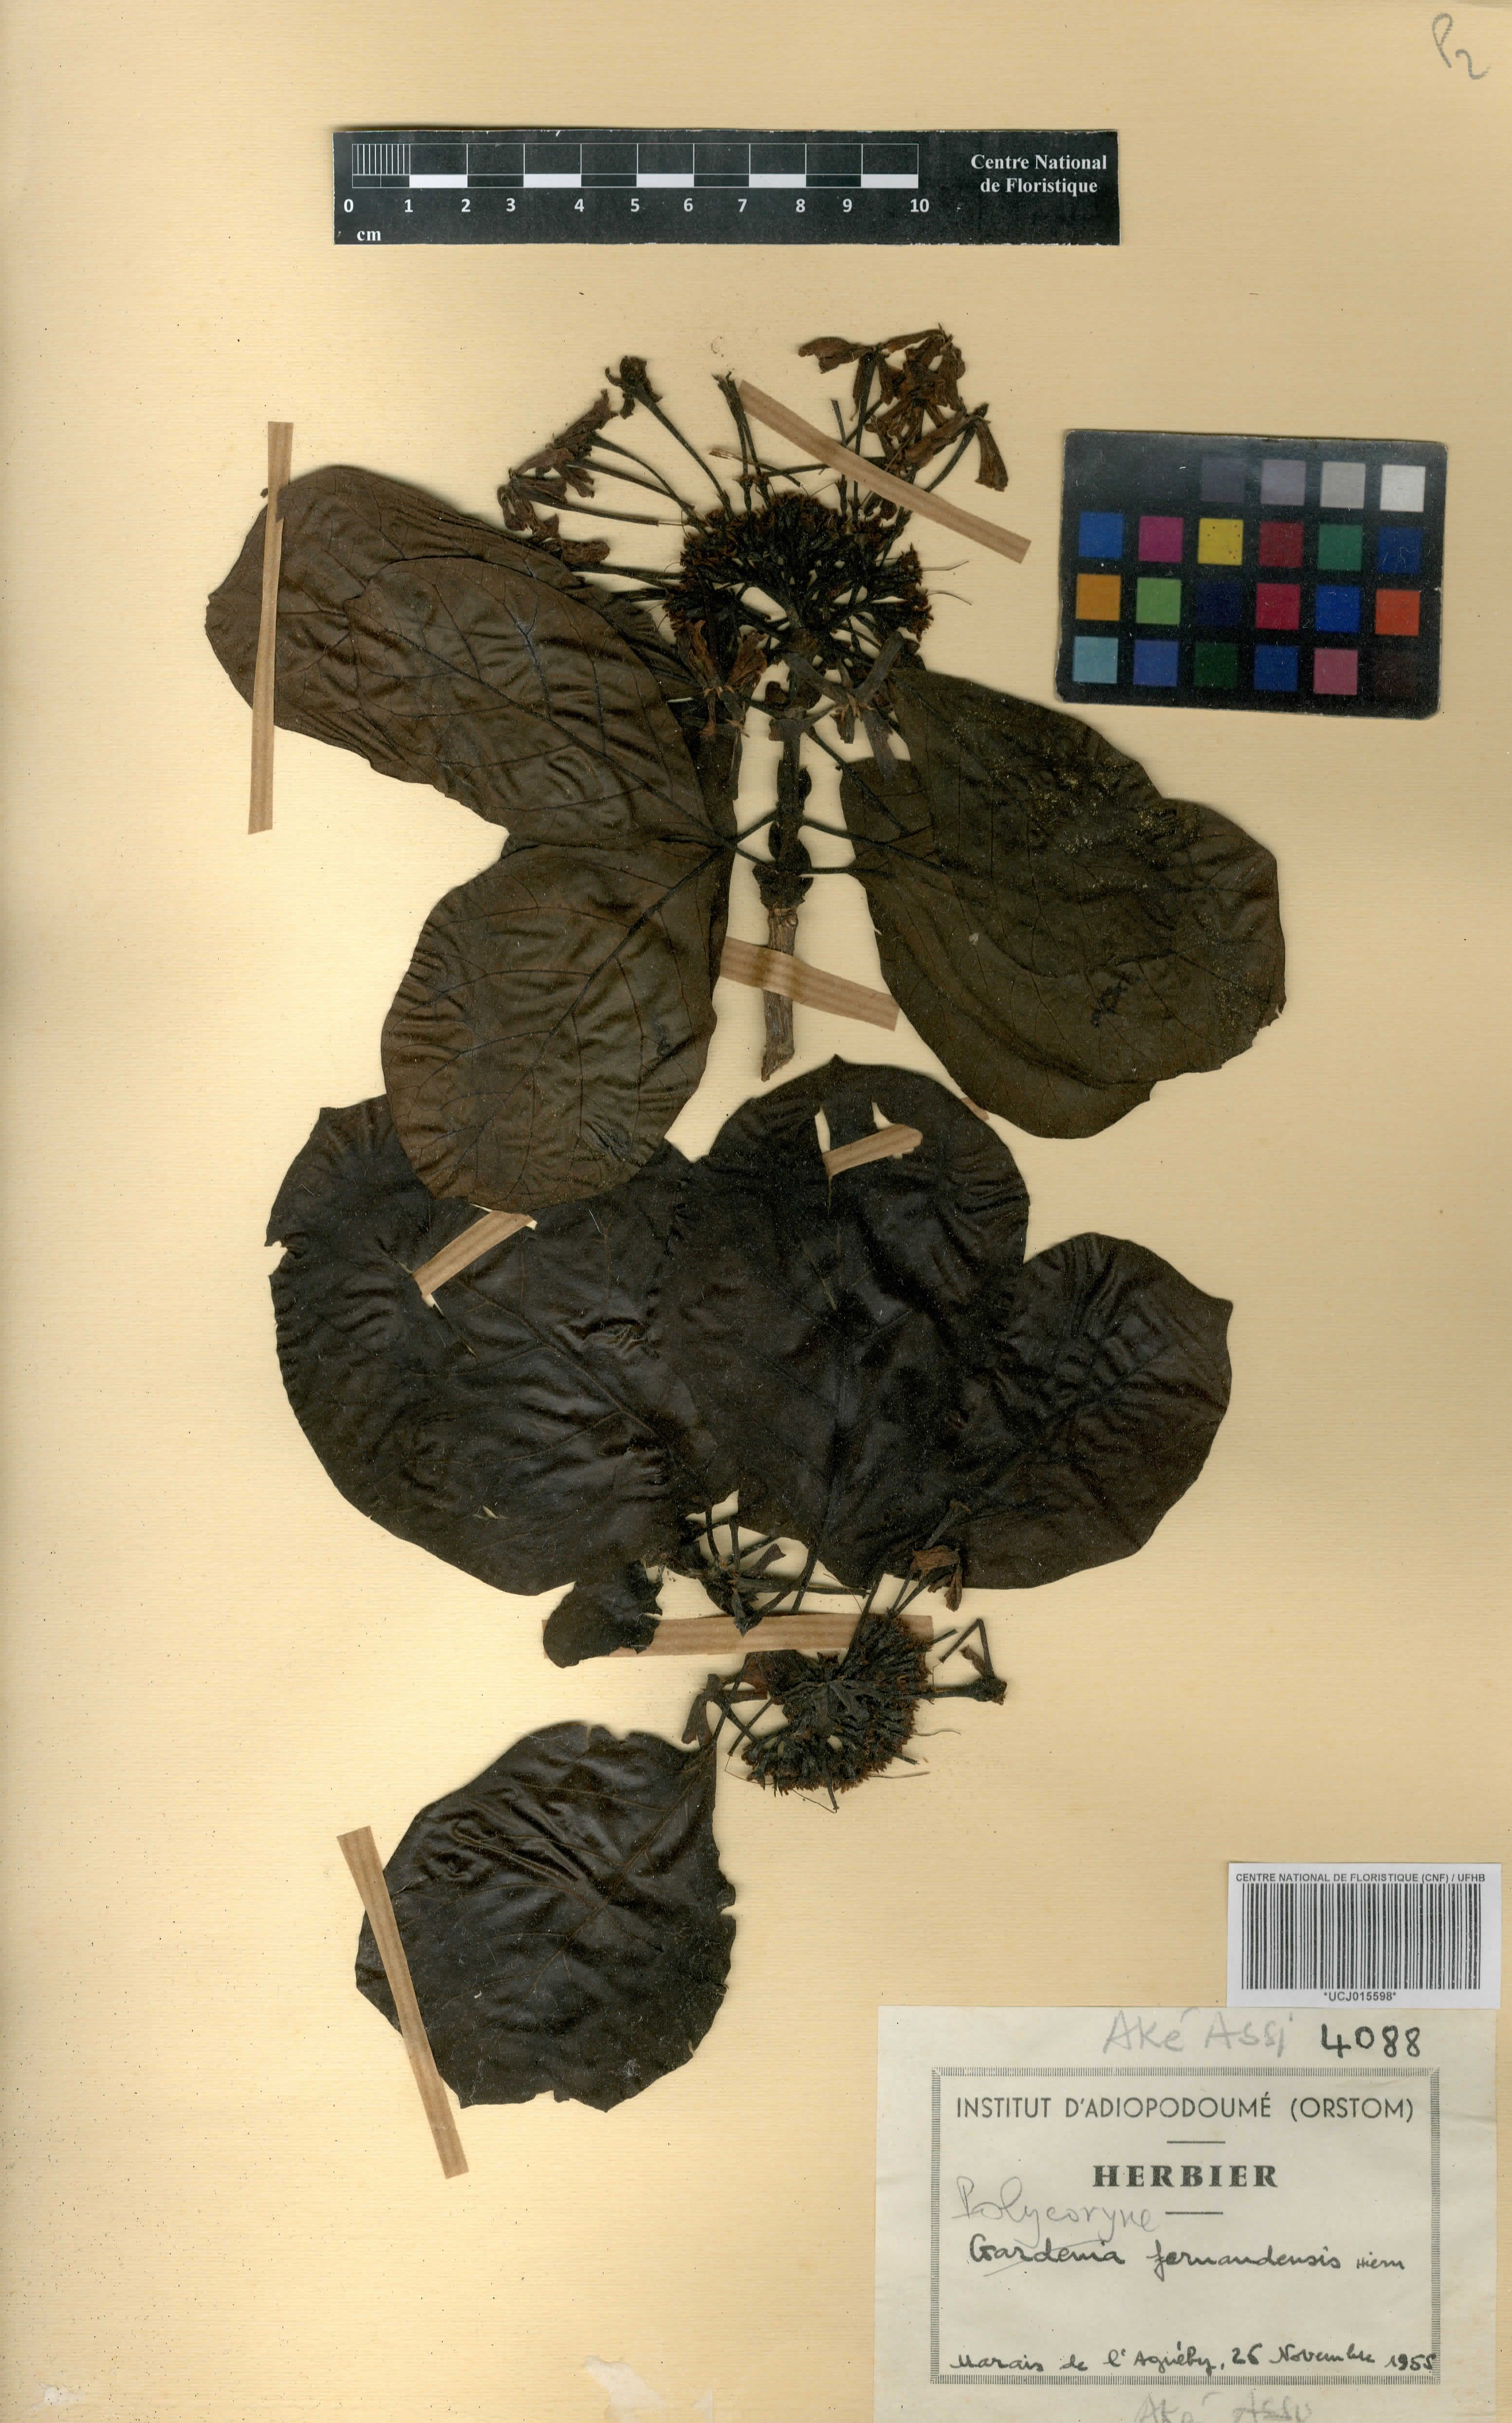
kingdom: Plantae
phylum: Tracheophyta
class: Magnoliopsida
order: Gentianales
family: Rubiaceae
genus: Pleiocoryne
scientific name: Pleiocoryne fernandensis
